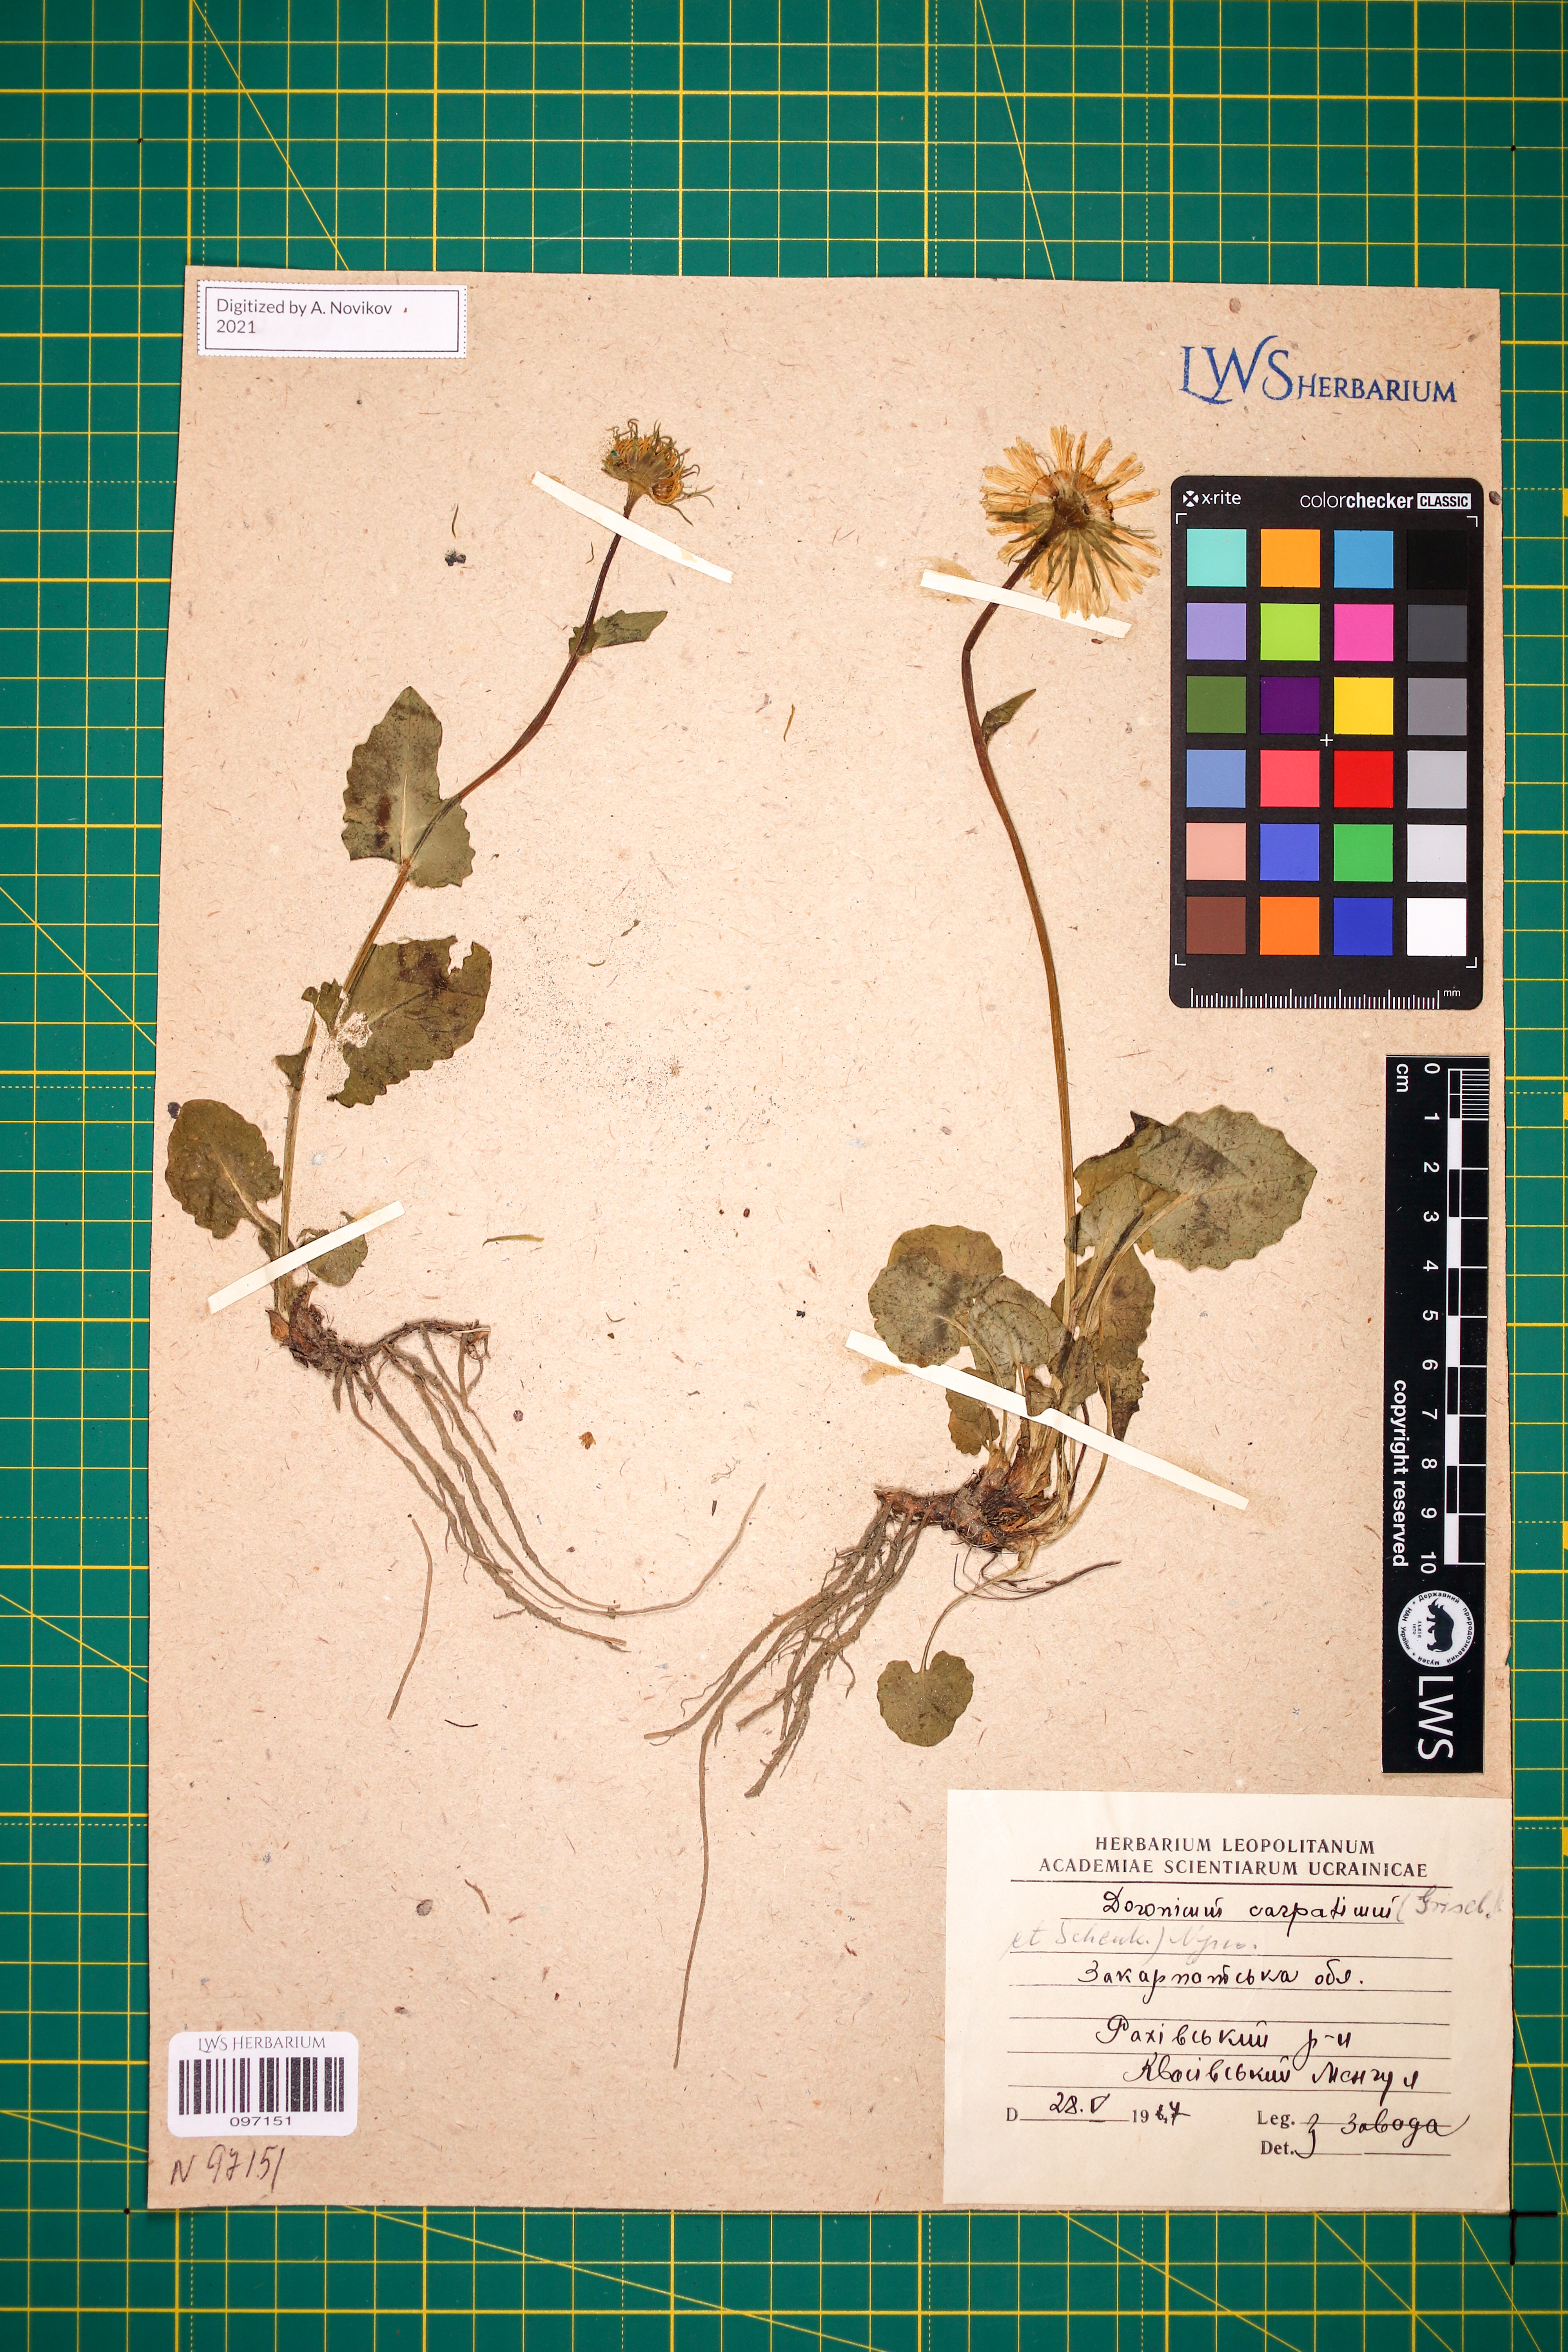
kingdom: Plantae
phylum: Tracheophyta
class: Magnoliopsida
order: Asterales
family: Asteraceae
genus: Doronicum
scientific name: Doronicum carpaticum
